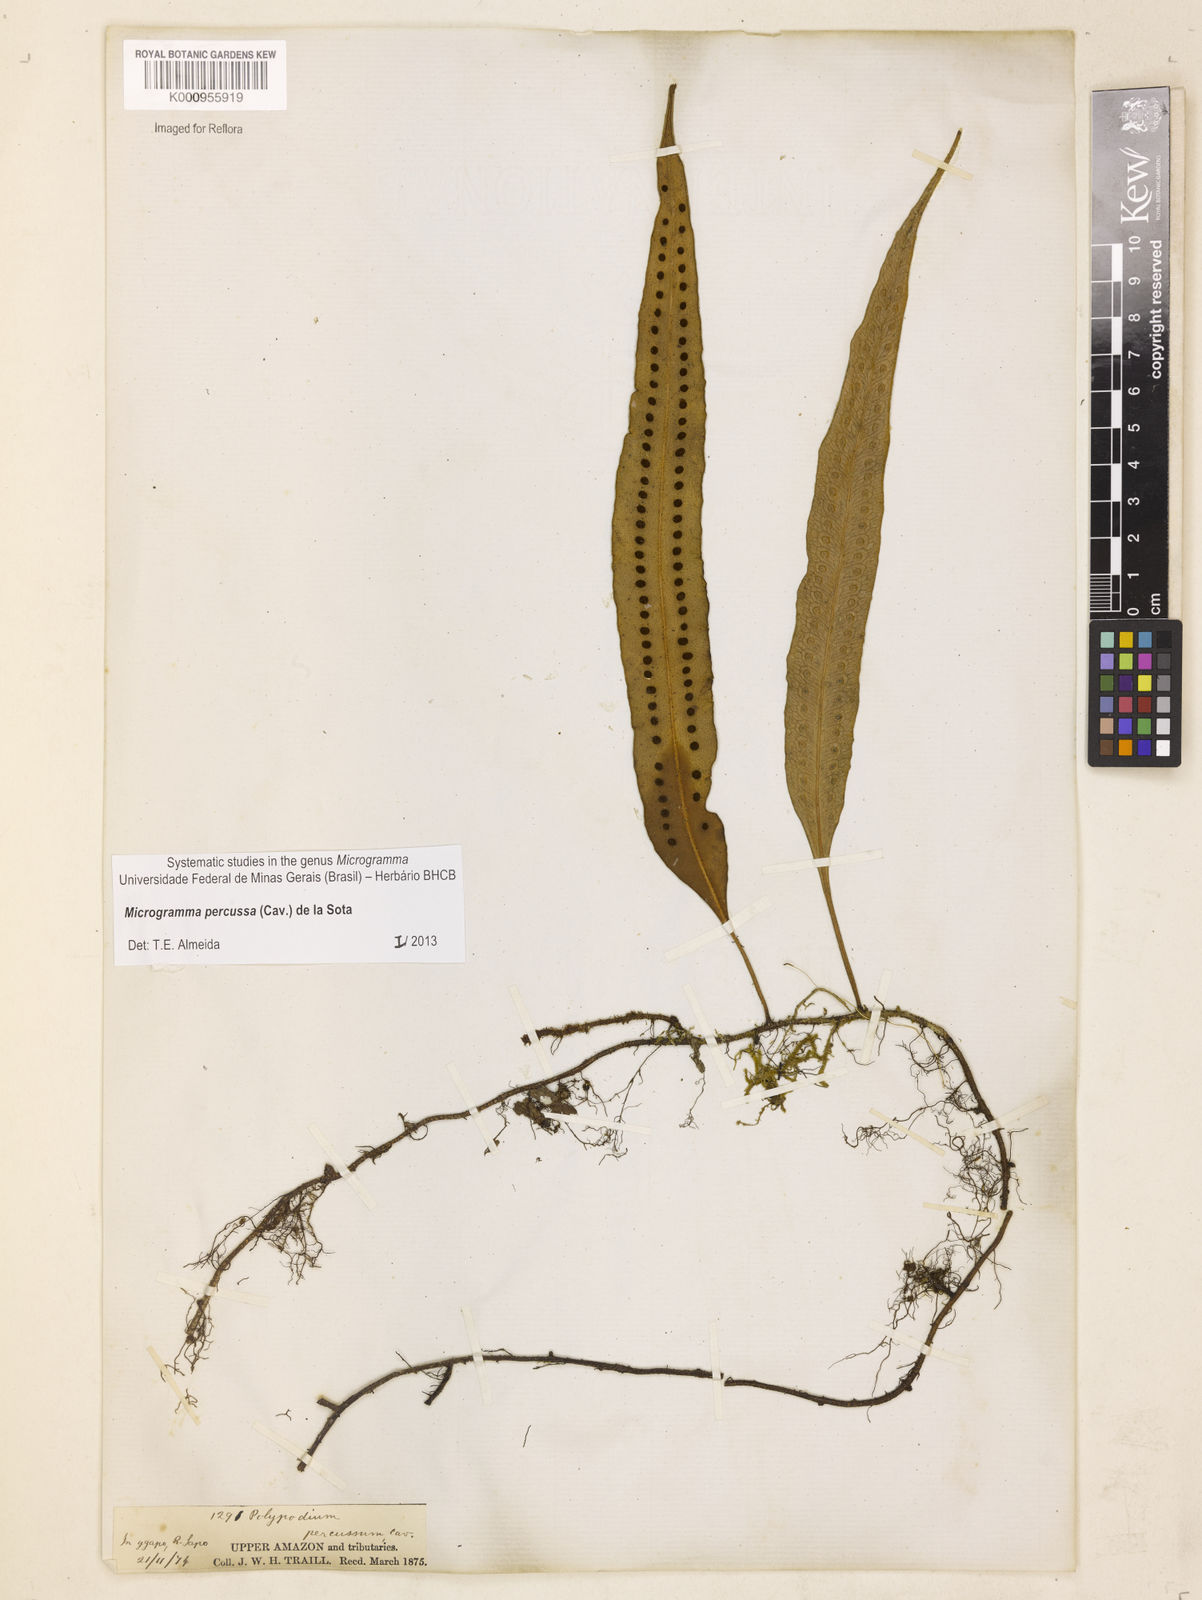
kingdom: Plantae
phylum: Tracheophyta
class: Polypodiopsida
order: Polypodiales
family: Polypodiaceae
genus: Microgramma
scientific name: Microgramma percussa
